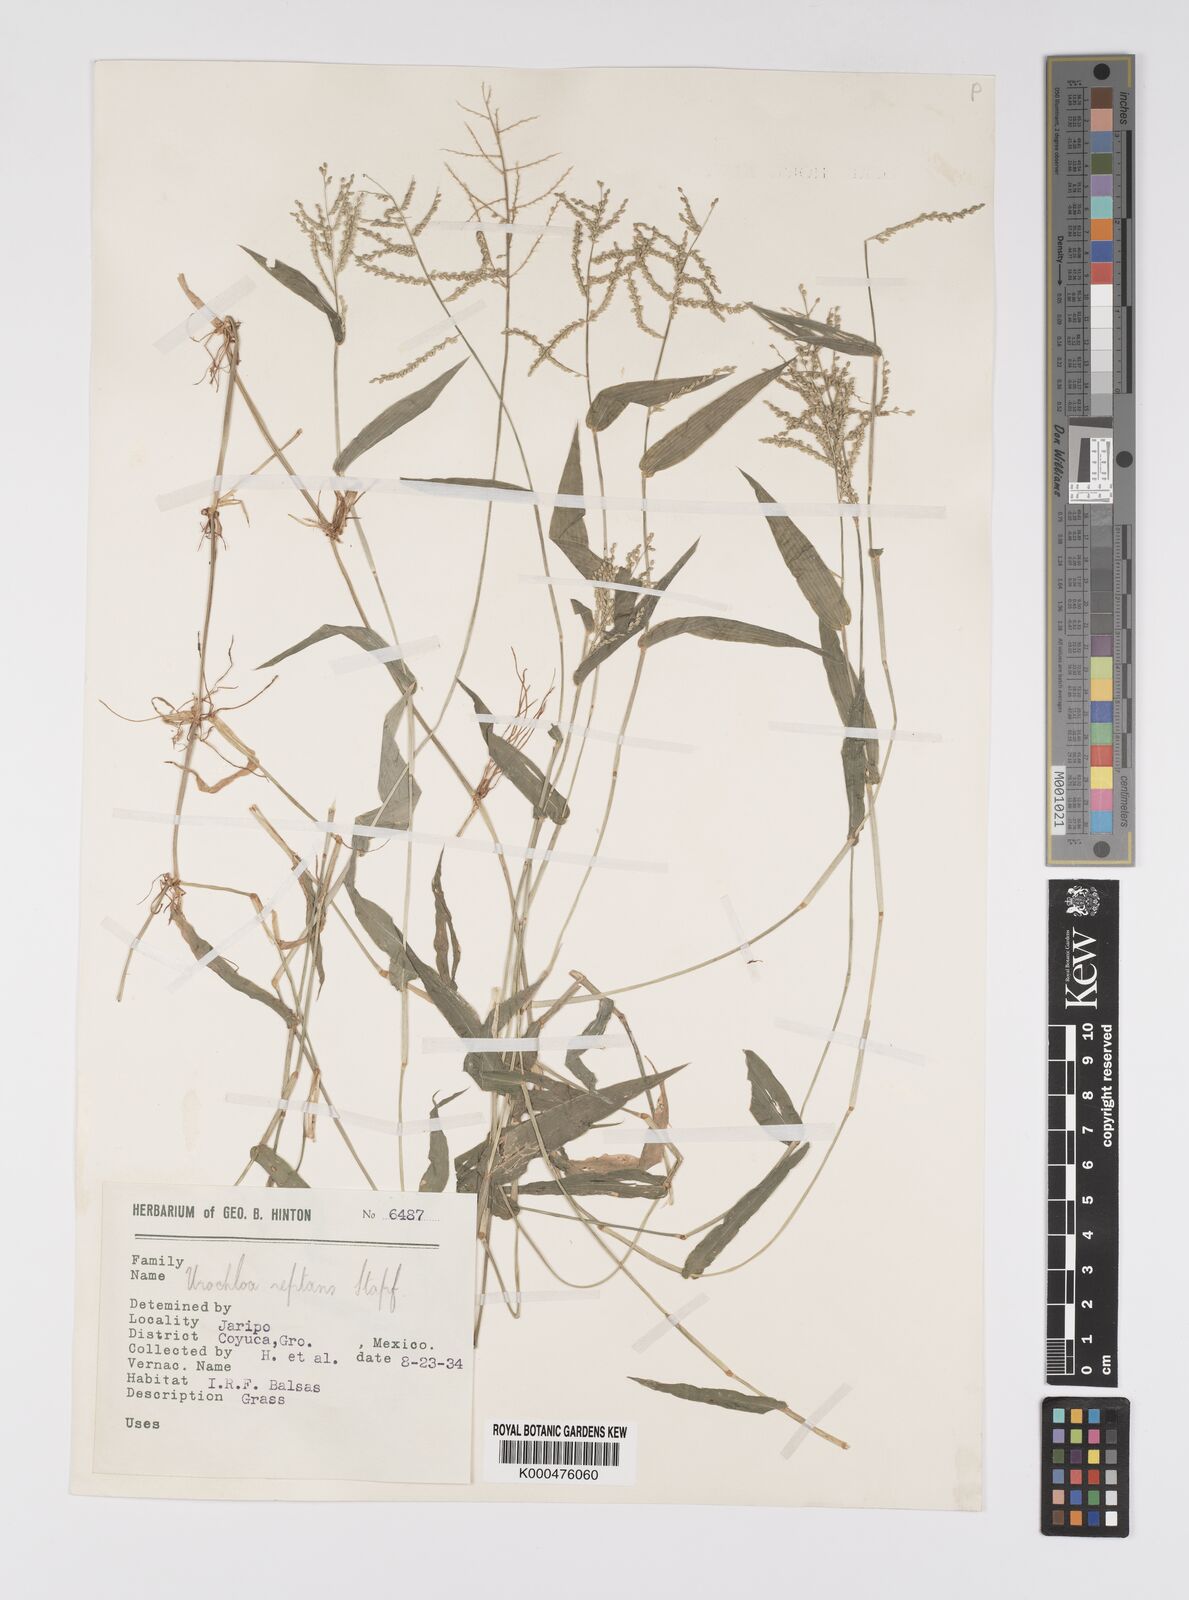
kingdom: Plantae
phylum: Tracheophyta
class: Liliopsida
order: Poales
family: Poaceae
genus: Urochloa
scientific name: Urochloa reptans
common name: Sprawling signalgrass
